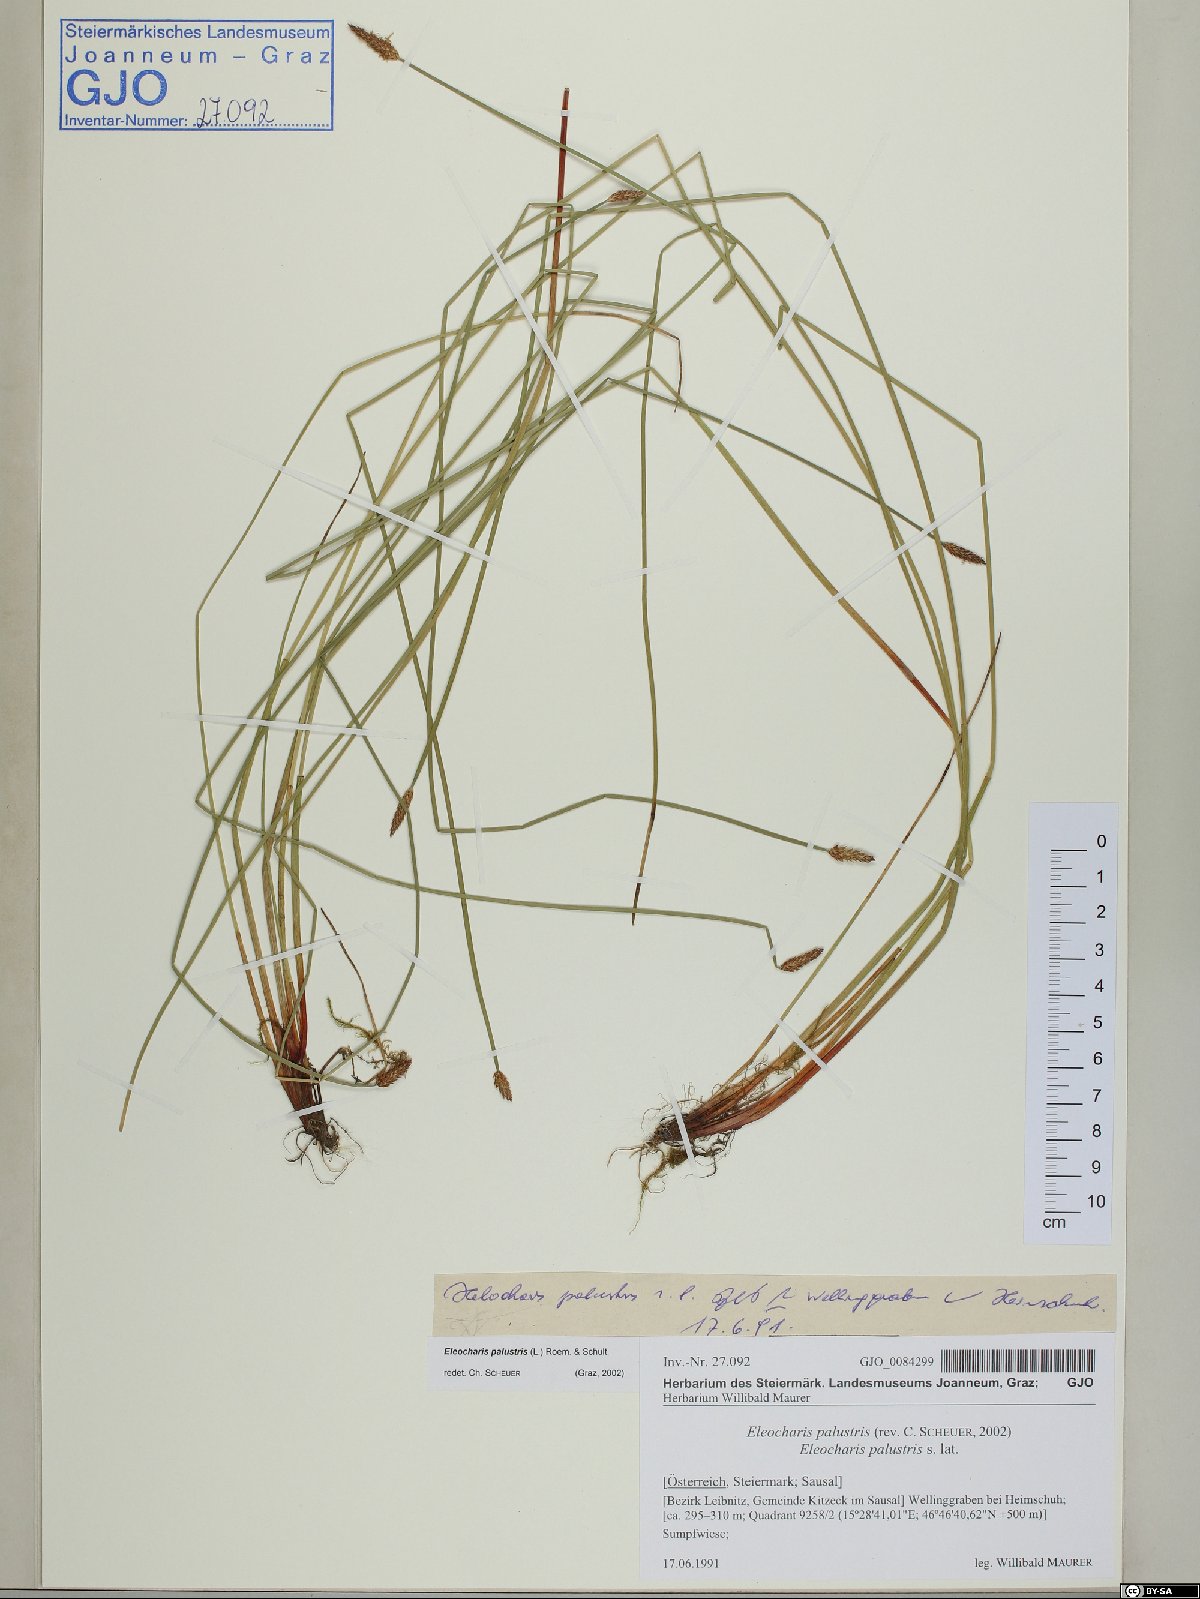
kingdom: Plantae
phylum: Tracheophyta
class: Liliopsida
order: Poales
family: Cyperaceae
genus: Eleocharis
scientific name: Eleocharis palustris
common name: Common spike-rush
